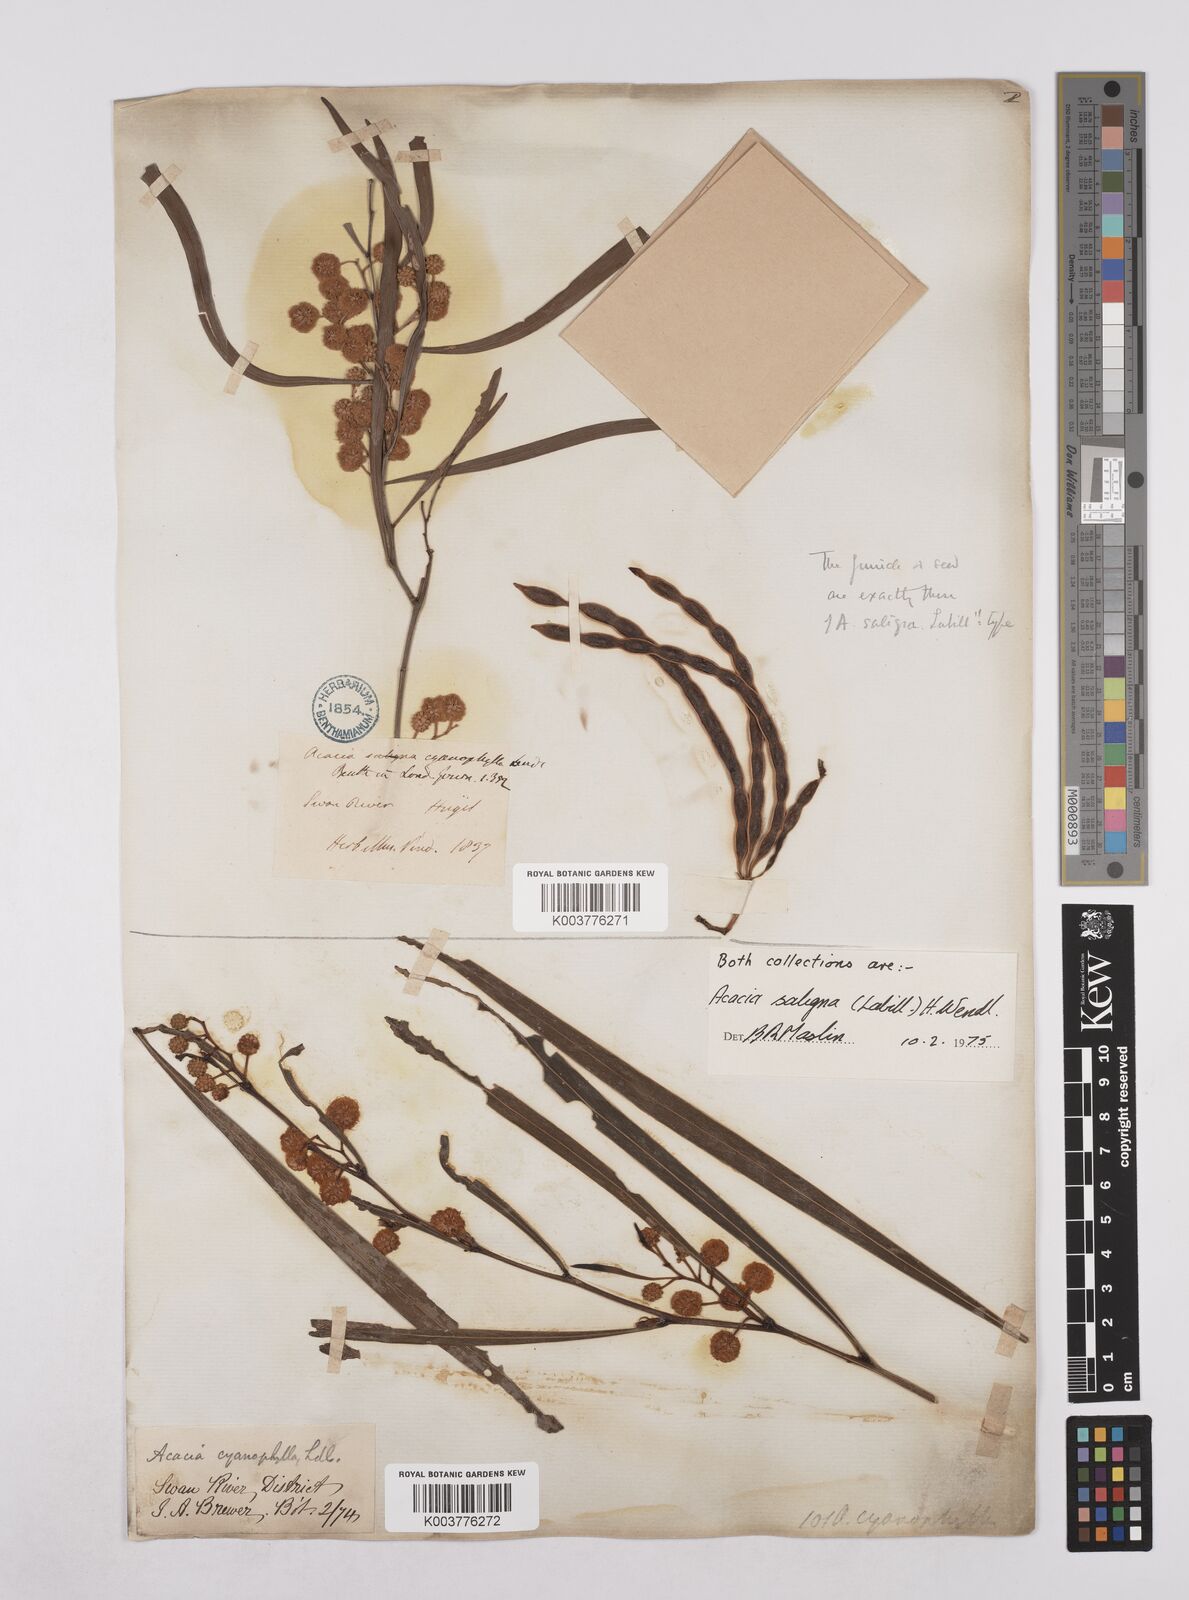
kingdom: Plantae
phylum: Tracheophyta
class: Magnoliopsida
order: Fabales
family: Fabaceae
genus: Acacia
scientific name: Acacia saligna
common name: Orange wattle
